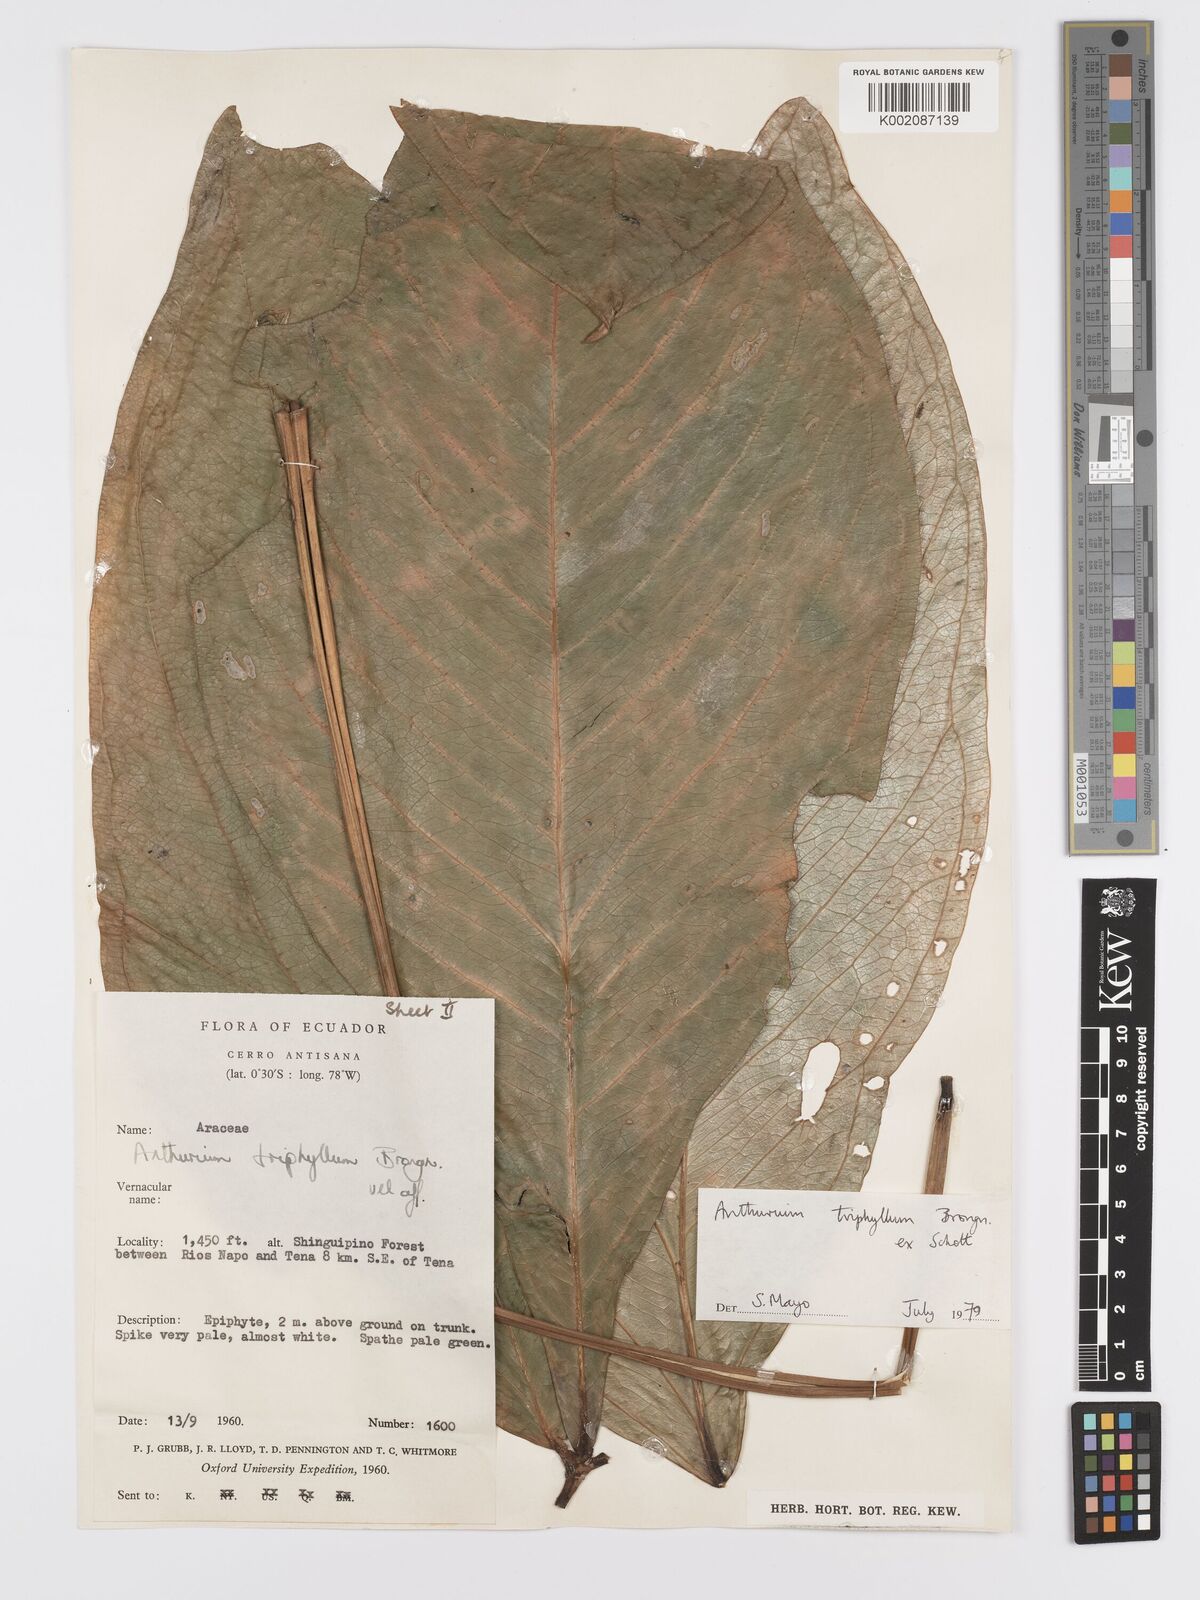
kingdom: Plantae
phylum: Tracheophyta
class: Liliopsida
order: Alismatales
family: Araceae
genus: Anthurium
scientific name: Anthurium triphyllum
